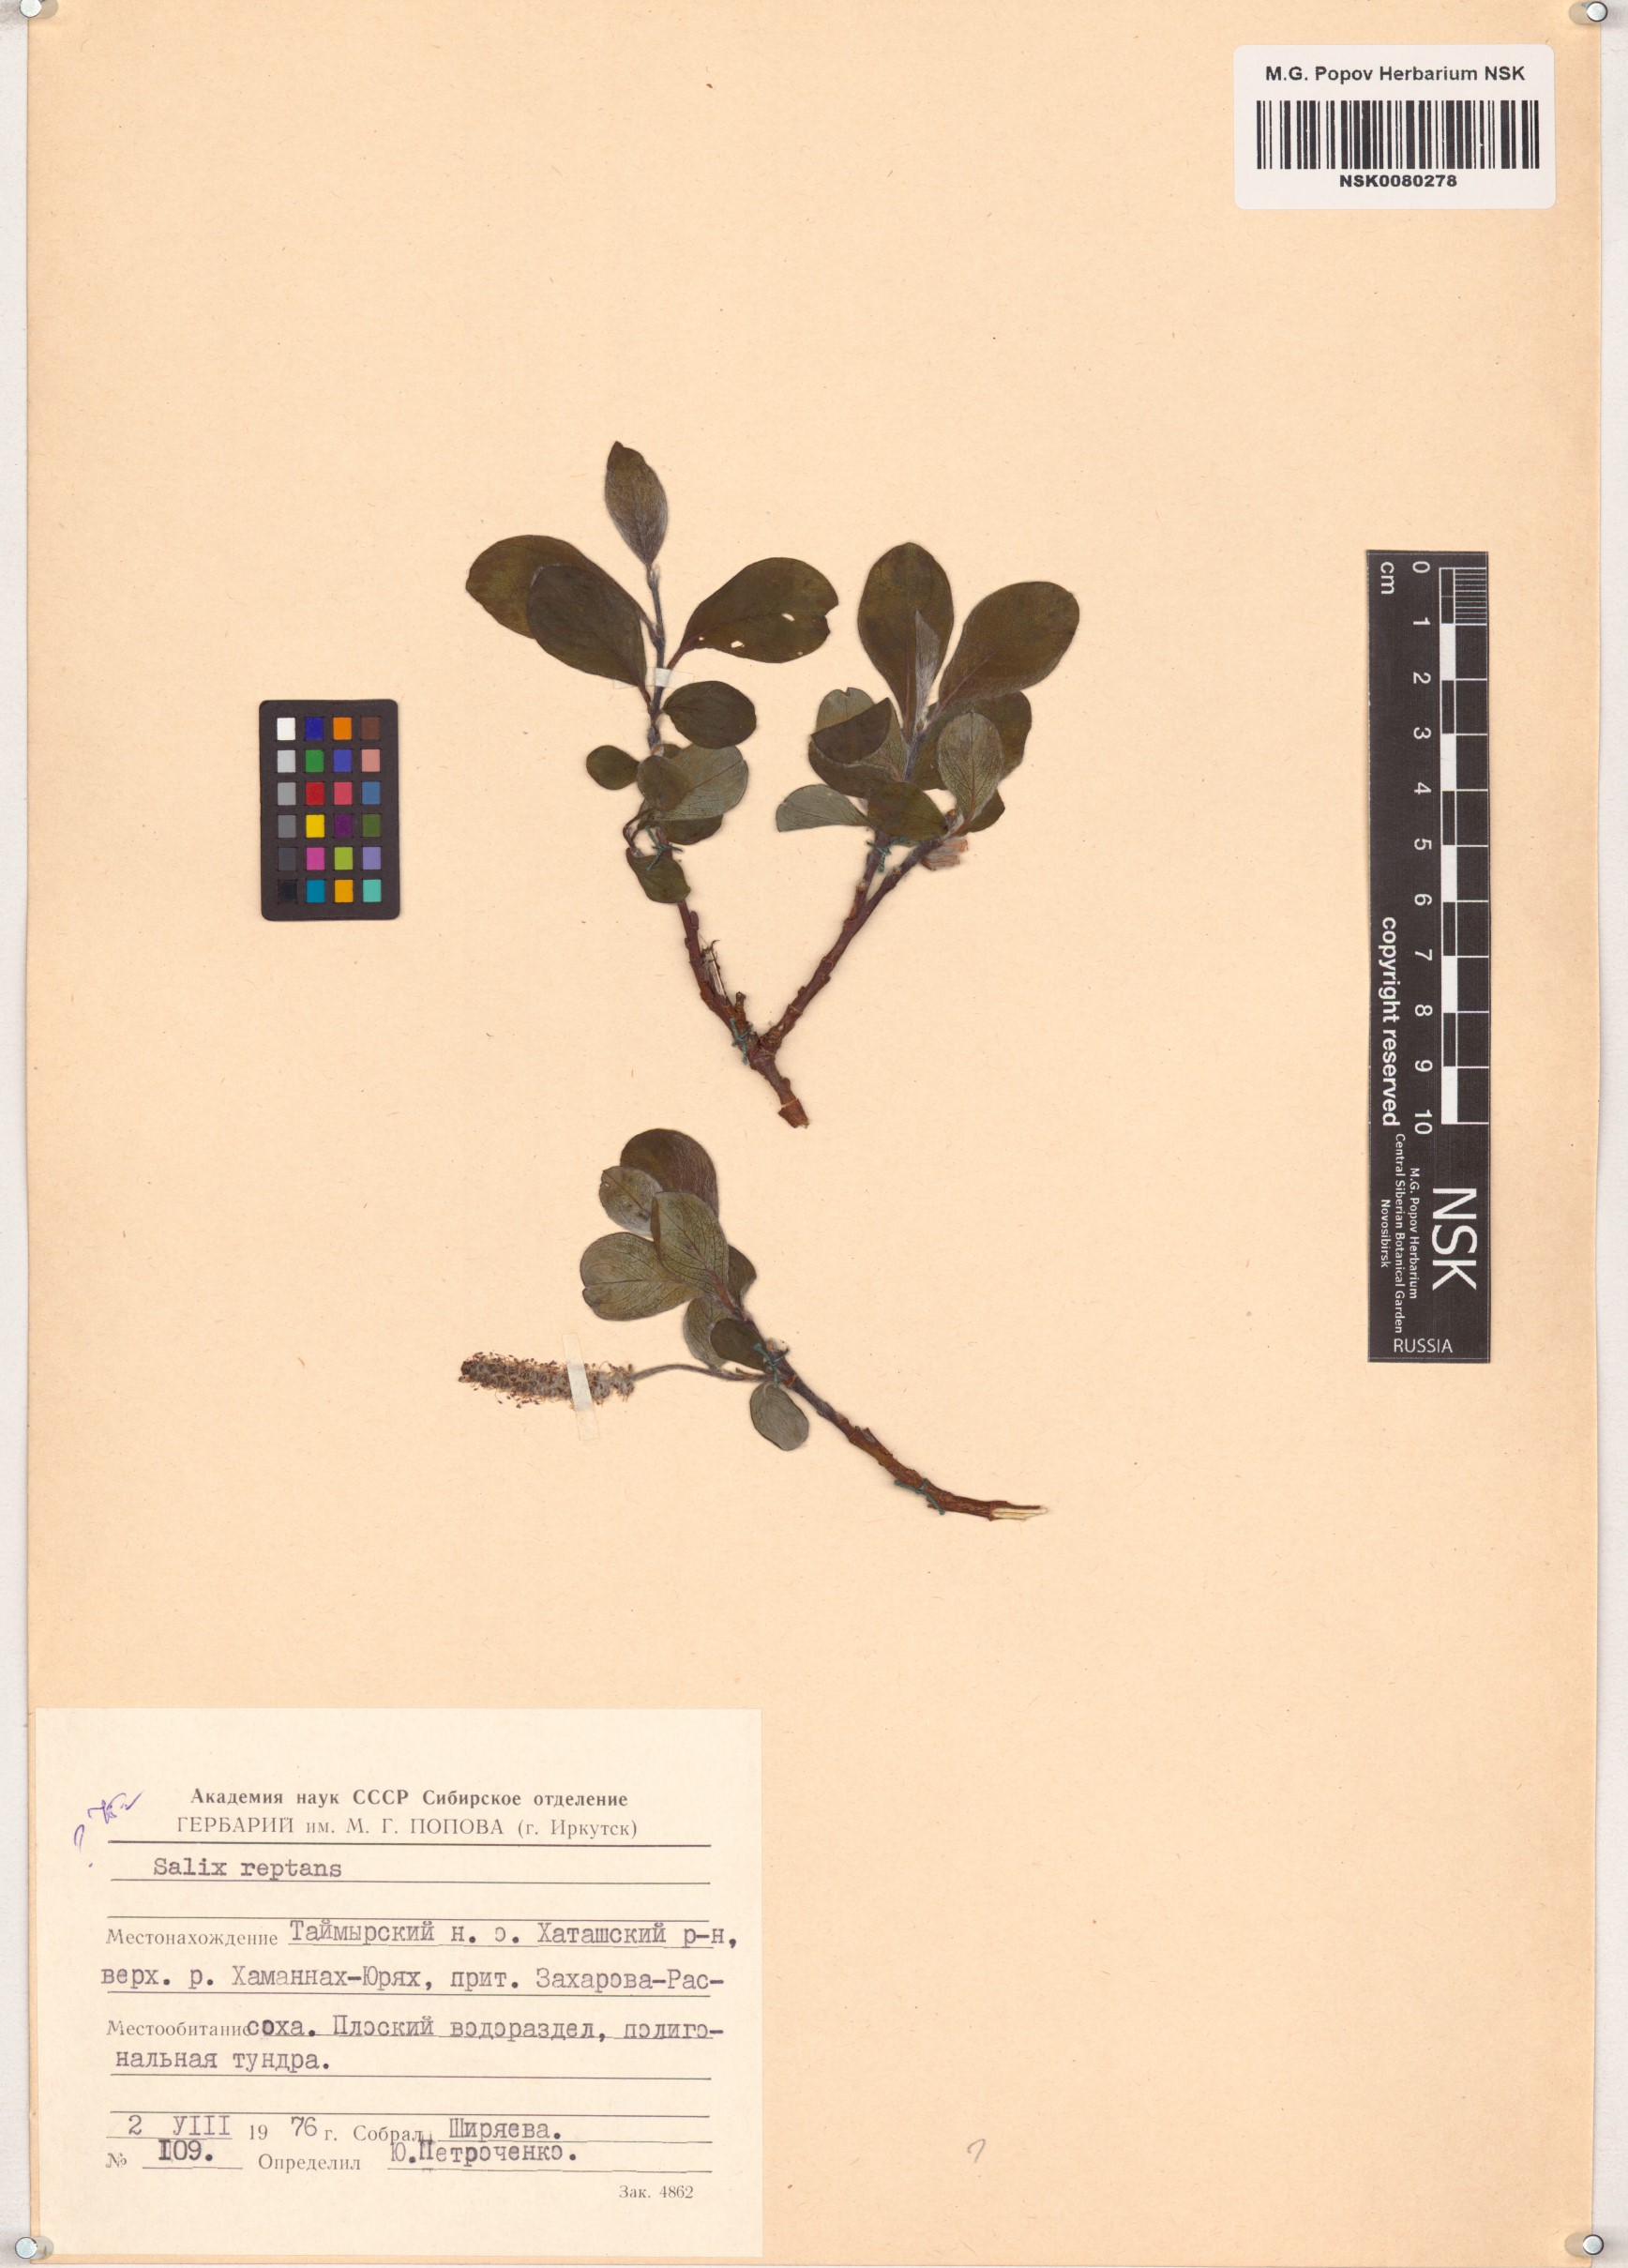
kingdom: Plantae
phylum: Tracheophyta
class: Magnoliopsida
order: Malpighiales
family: Salicaceae
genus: Salix
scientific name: Salix reptans
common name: Arctic creeping willow
